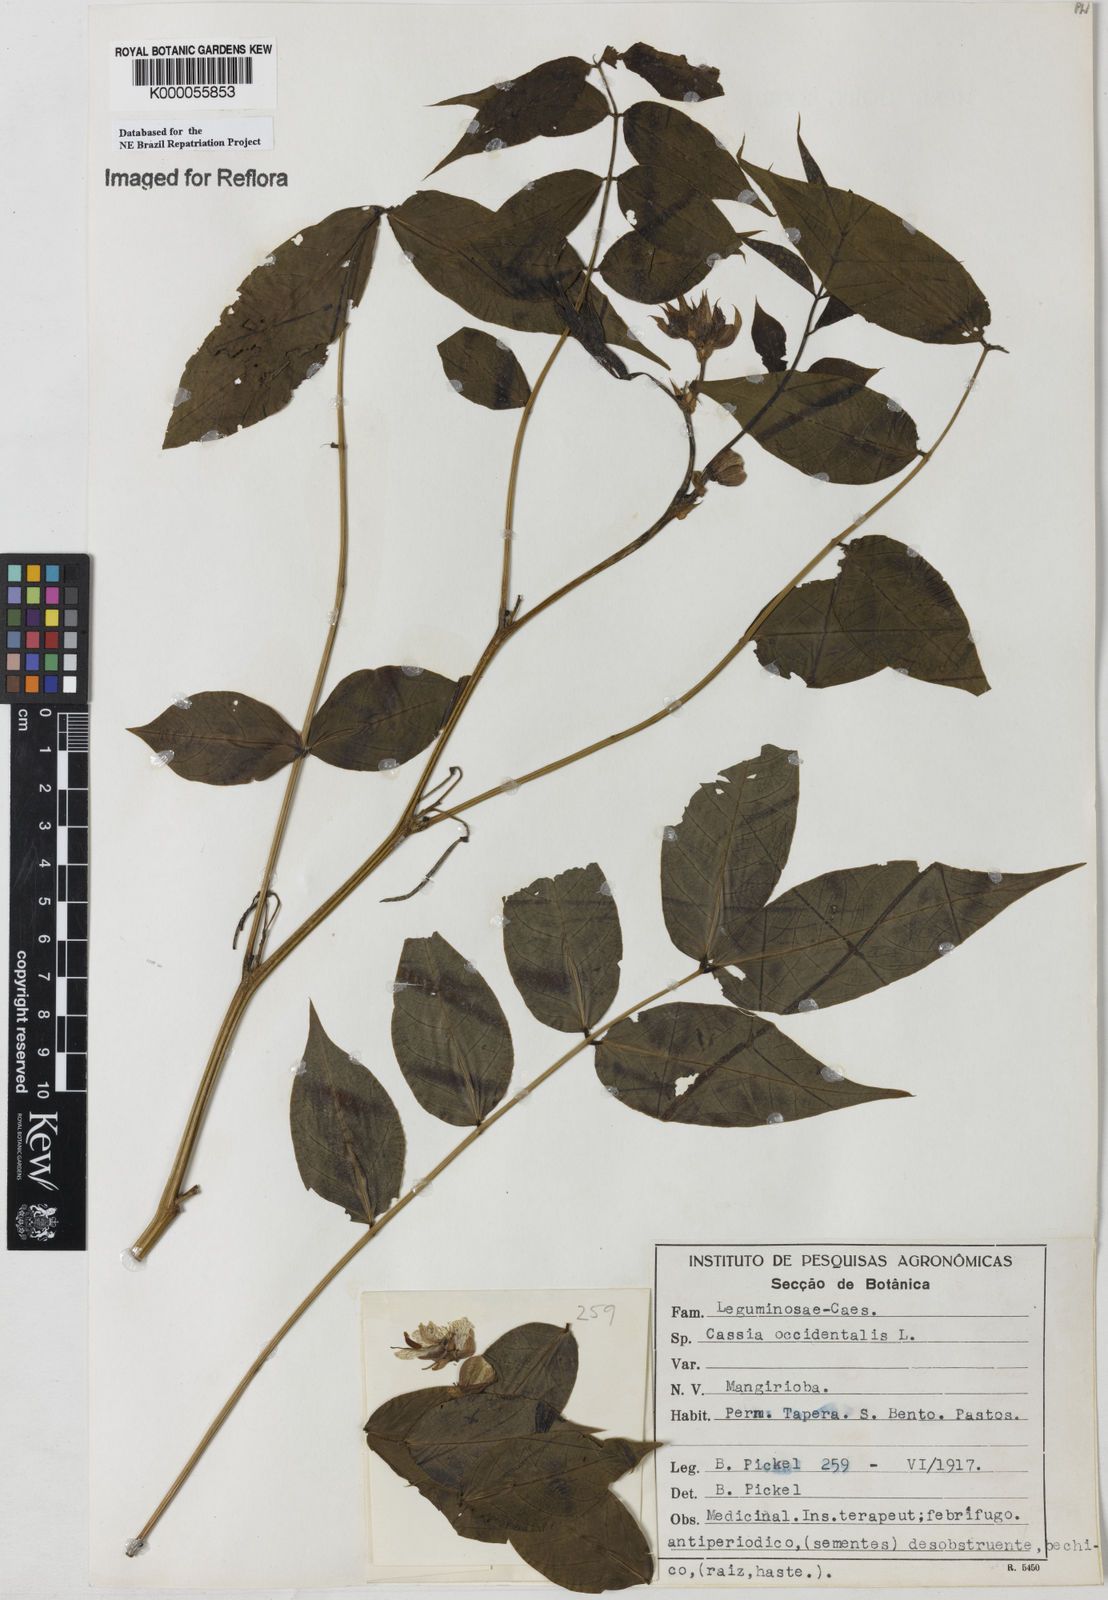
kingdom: Plantae
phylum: Tracheophyta
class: Magnoliopsida
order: Fabales
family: Fabaceae
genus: Senna
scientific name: Senna occidentalis
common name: Septicweed
